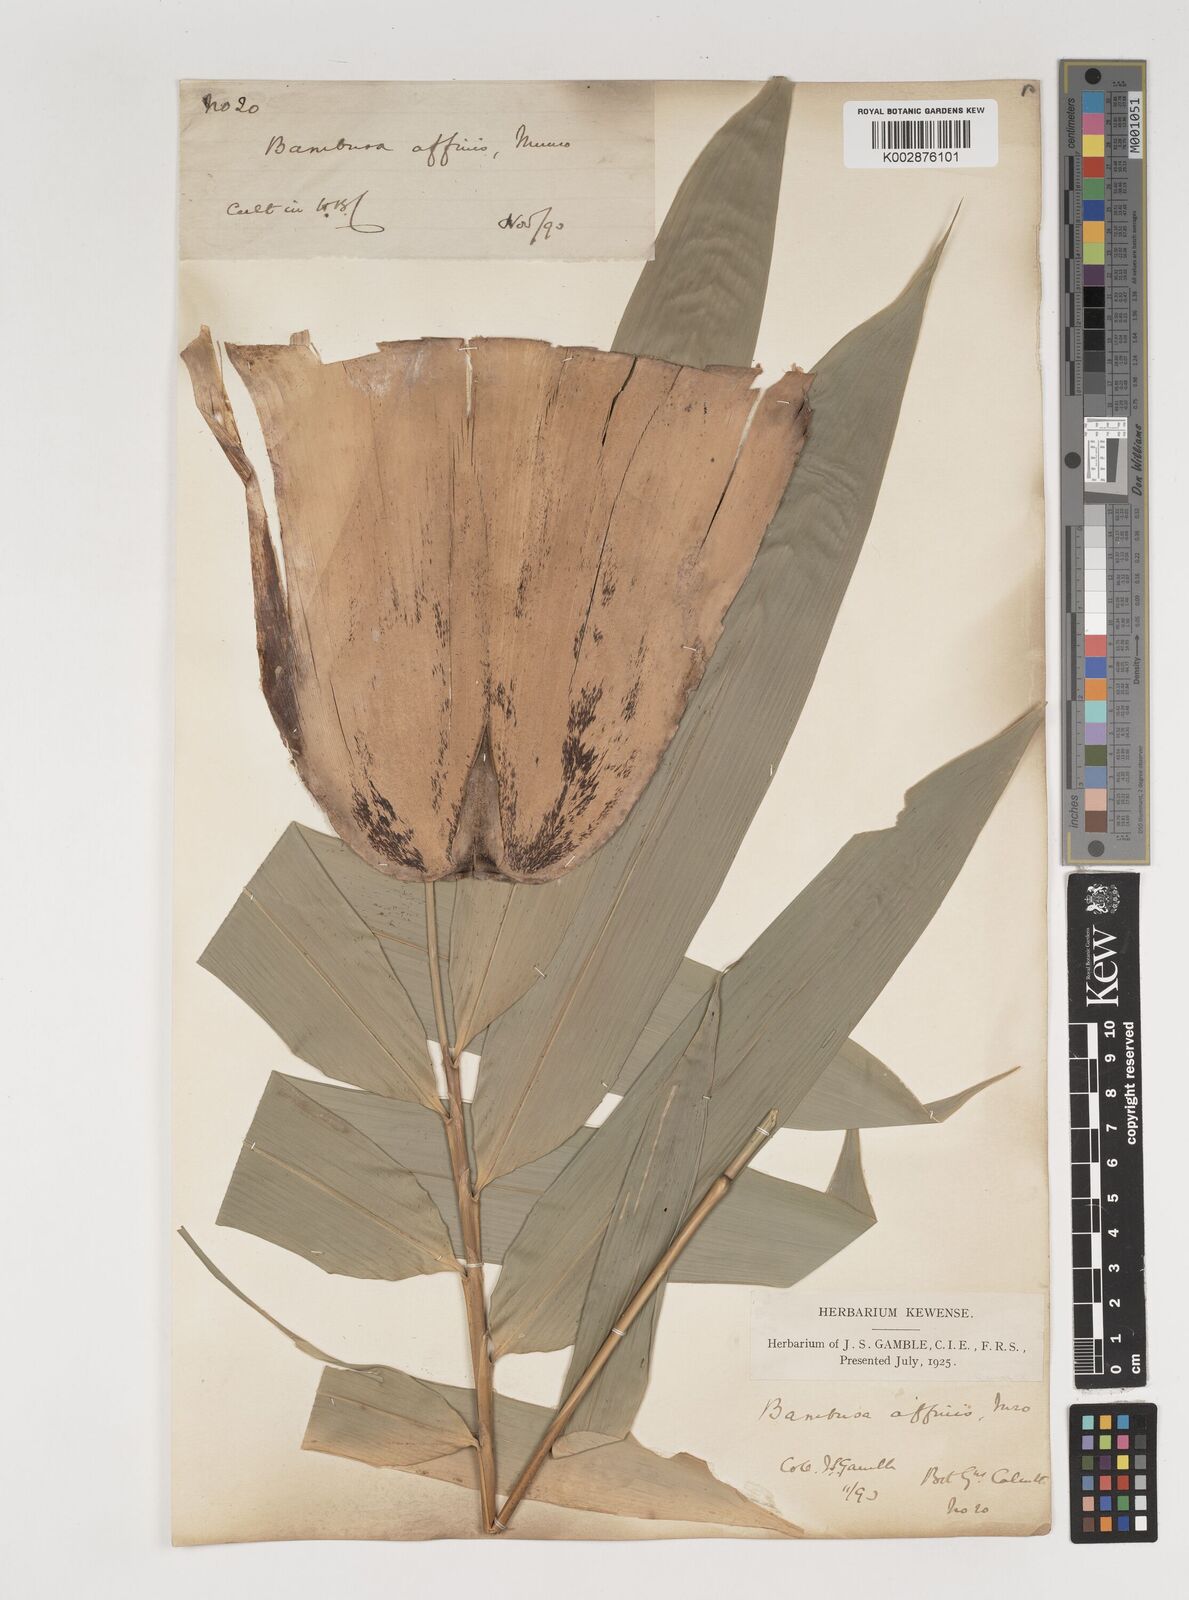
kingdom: Plantae
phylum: Tracheophyta
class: Liliopsida
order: Poales
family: Poaceae
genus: Bambusa
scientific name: Bambusa affinis
